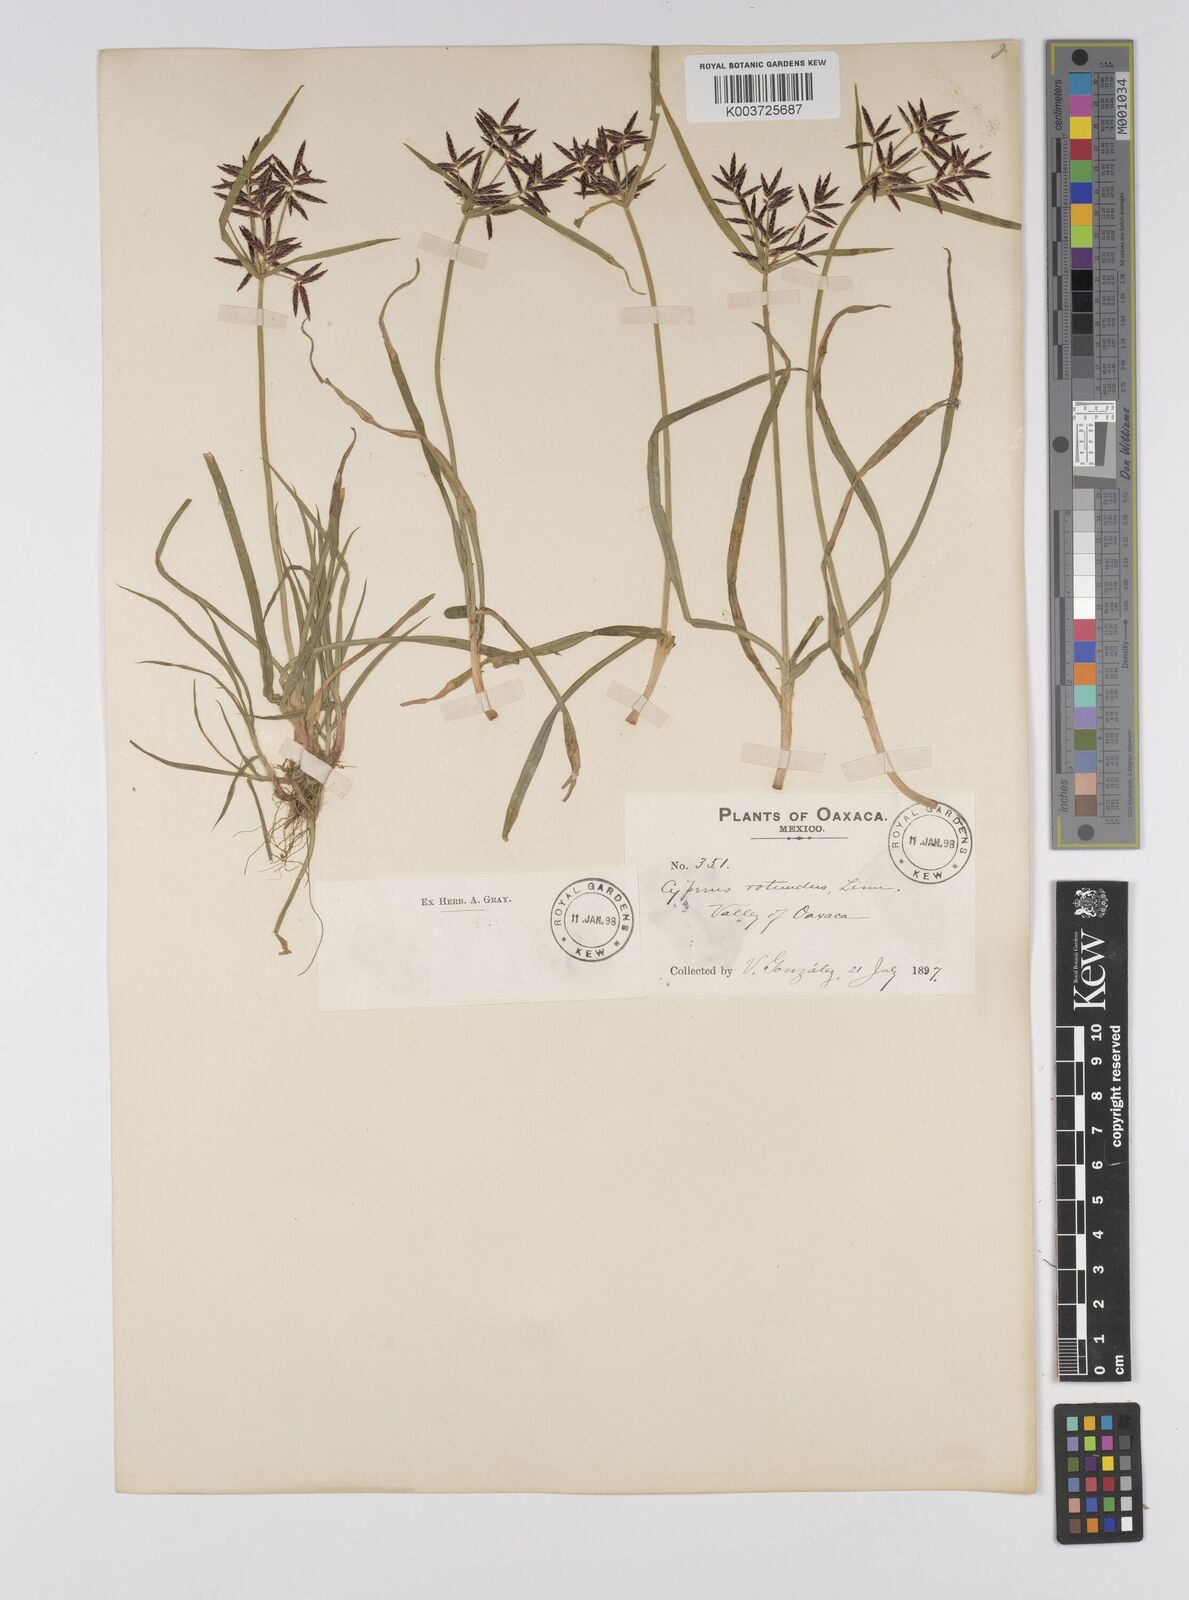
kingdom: Plantae
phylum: Tracheophyta
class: Liliopsida
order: Poales
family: Cyperaceae
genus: Cyperus
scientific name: Cyperus rotundus
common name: Nutgrass
